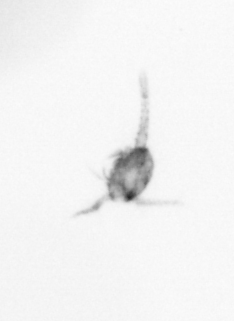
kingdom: Animalia
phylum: Arthropoda
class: Copepoda
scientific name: Copepoda
